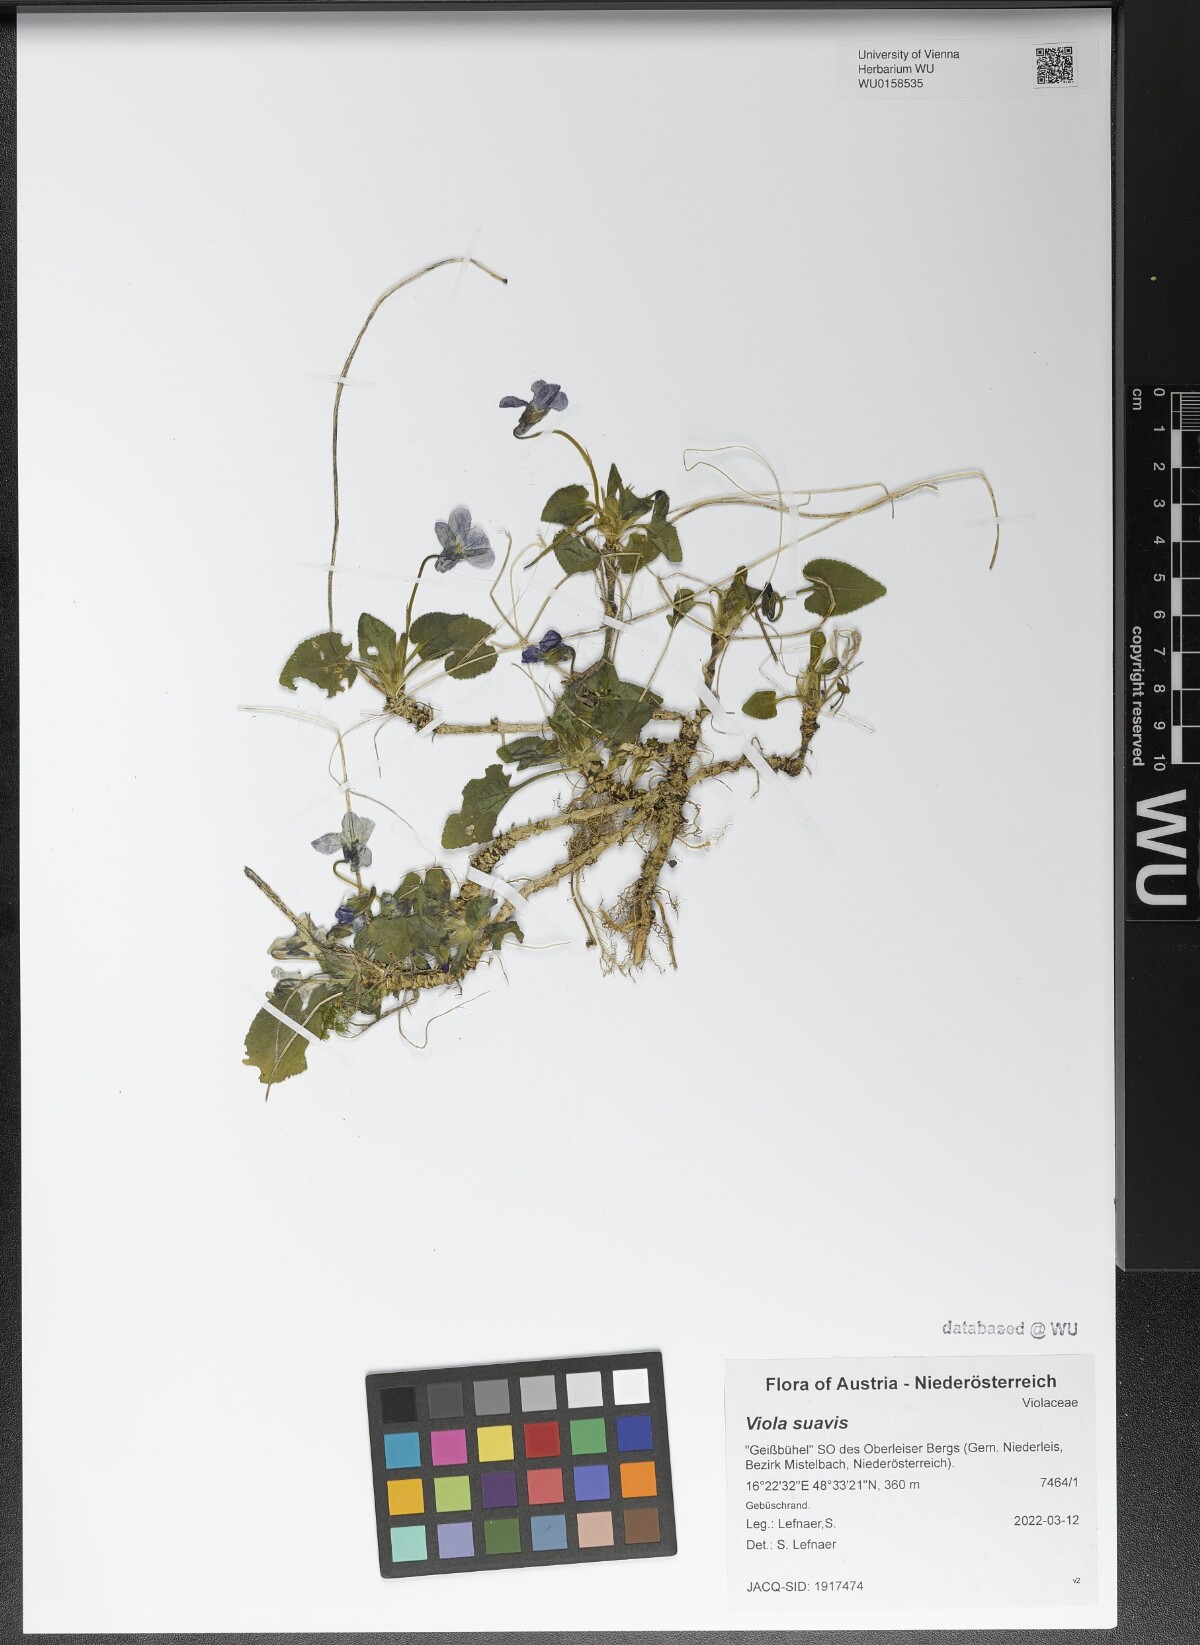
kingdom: Plantae
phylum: Tracheophyta
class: Magnoliopsida
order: Malpighiales
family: Violaceae
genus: Viola
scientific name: Viola suavis
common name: Russian violet
